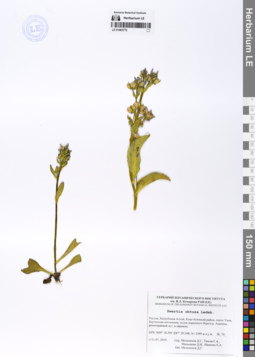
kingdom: Plantae
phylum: Tracheophyta
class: Magnoliopsida
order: Gentianales
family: Gentianaceae
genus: Swertia
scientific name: Swertia obtusa
